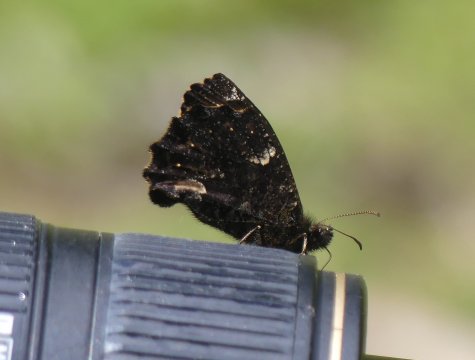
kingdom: Animalia
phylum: Arthropoda
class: Insecta
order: Lepidoptera
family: Nymphalidae
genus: Steroma
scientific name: Steroma bega
